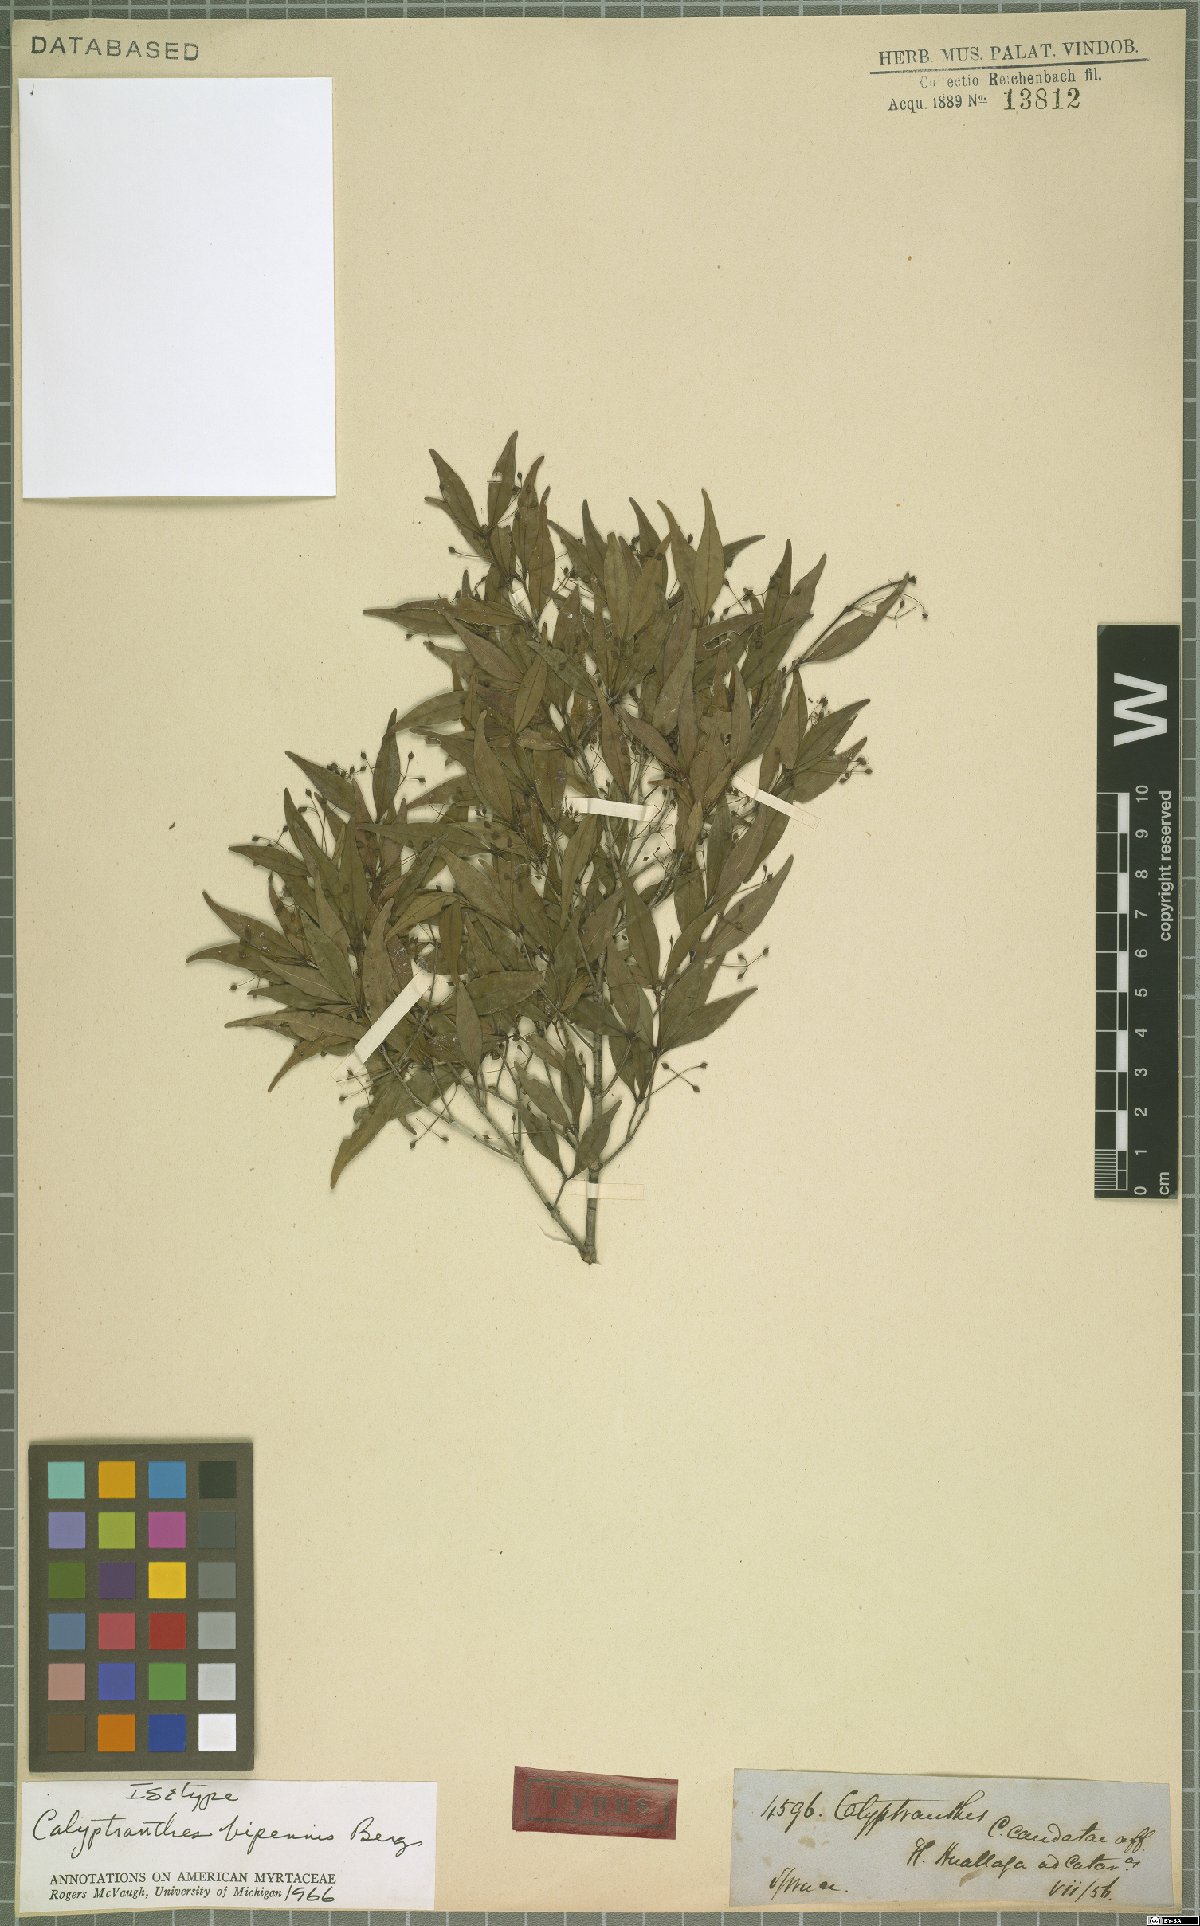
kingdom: Plantae
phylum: Tracheophyta
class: Magnoliopsida
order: Myrtales
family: Myrtaceae
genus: Myrcia
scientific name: Myrcia tenuiflora
